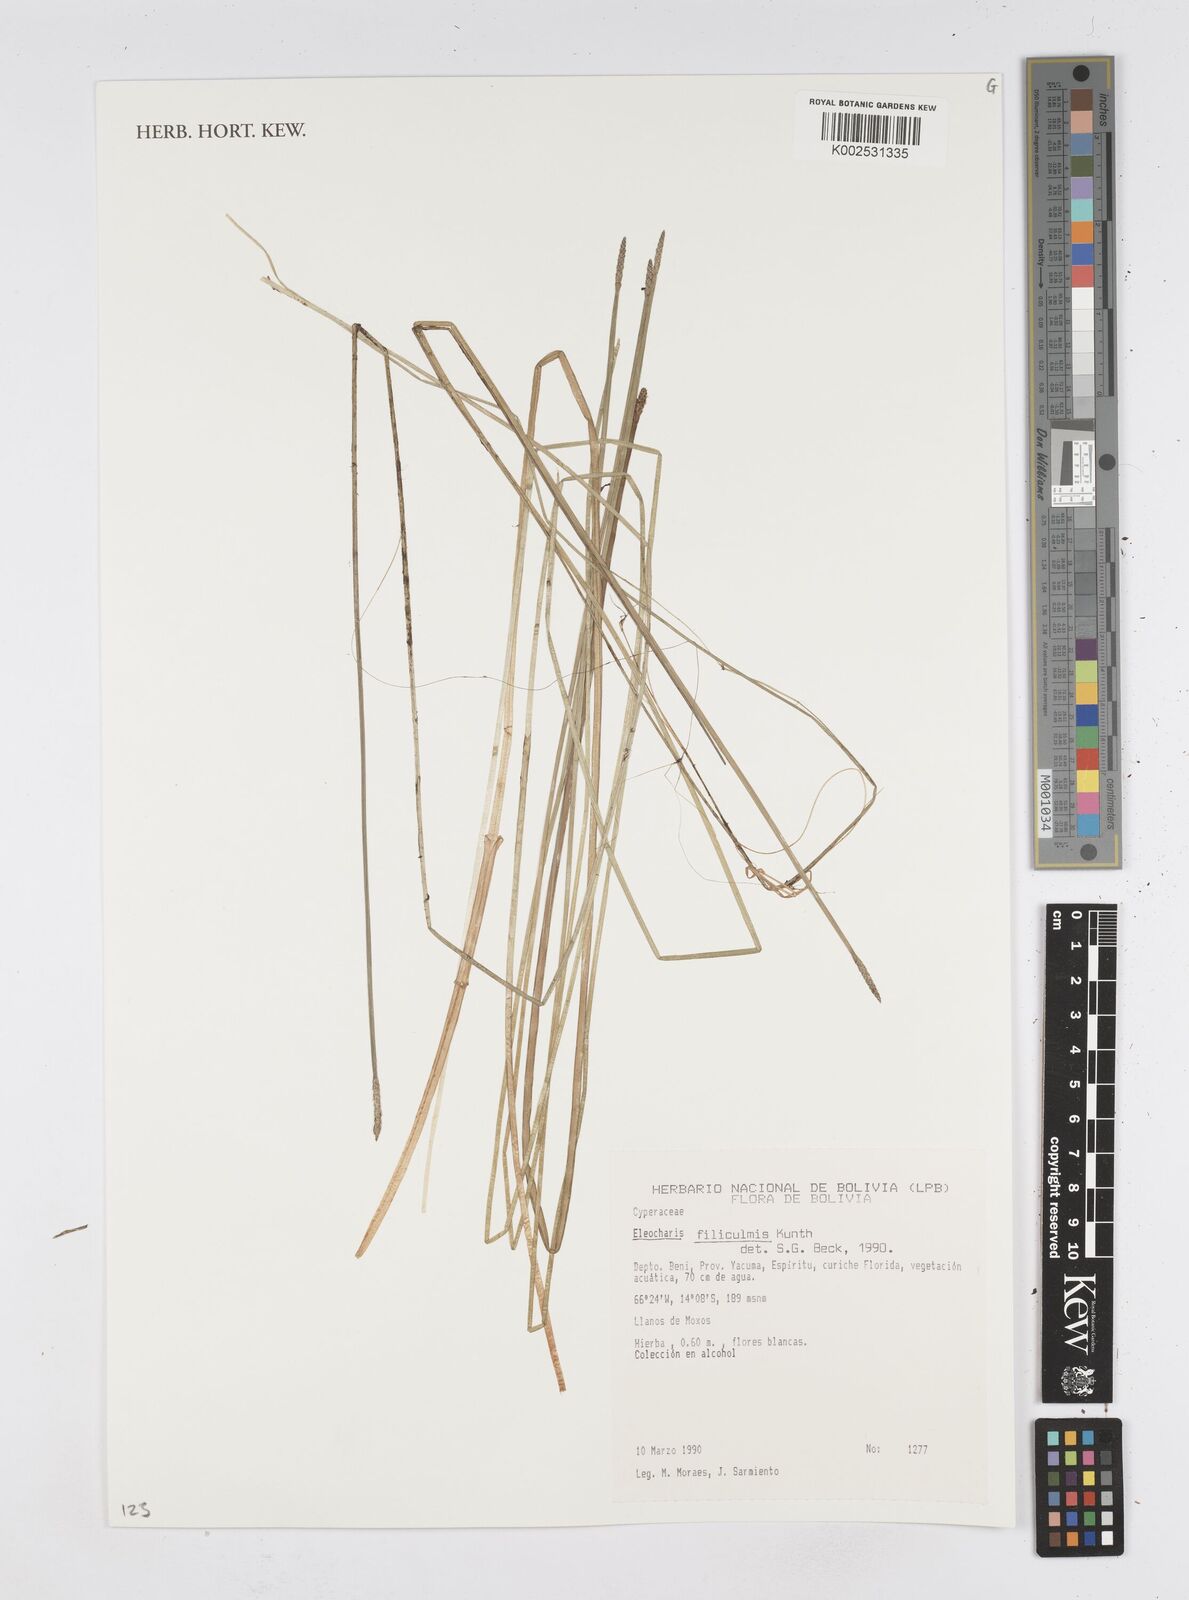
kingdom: Plantae
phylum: Tracheophyta
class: Liliopsida
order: Poales
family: Cyperaceae
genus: Eleocharis
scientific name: Eleocharis filiculmis
